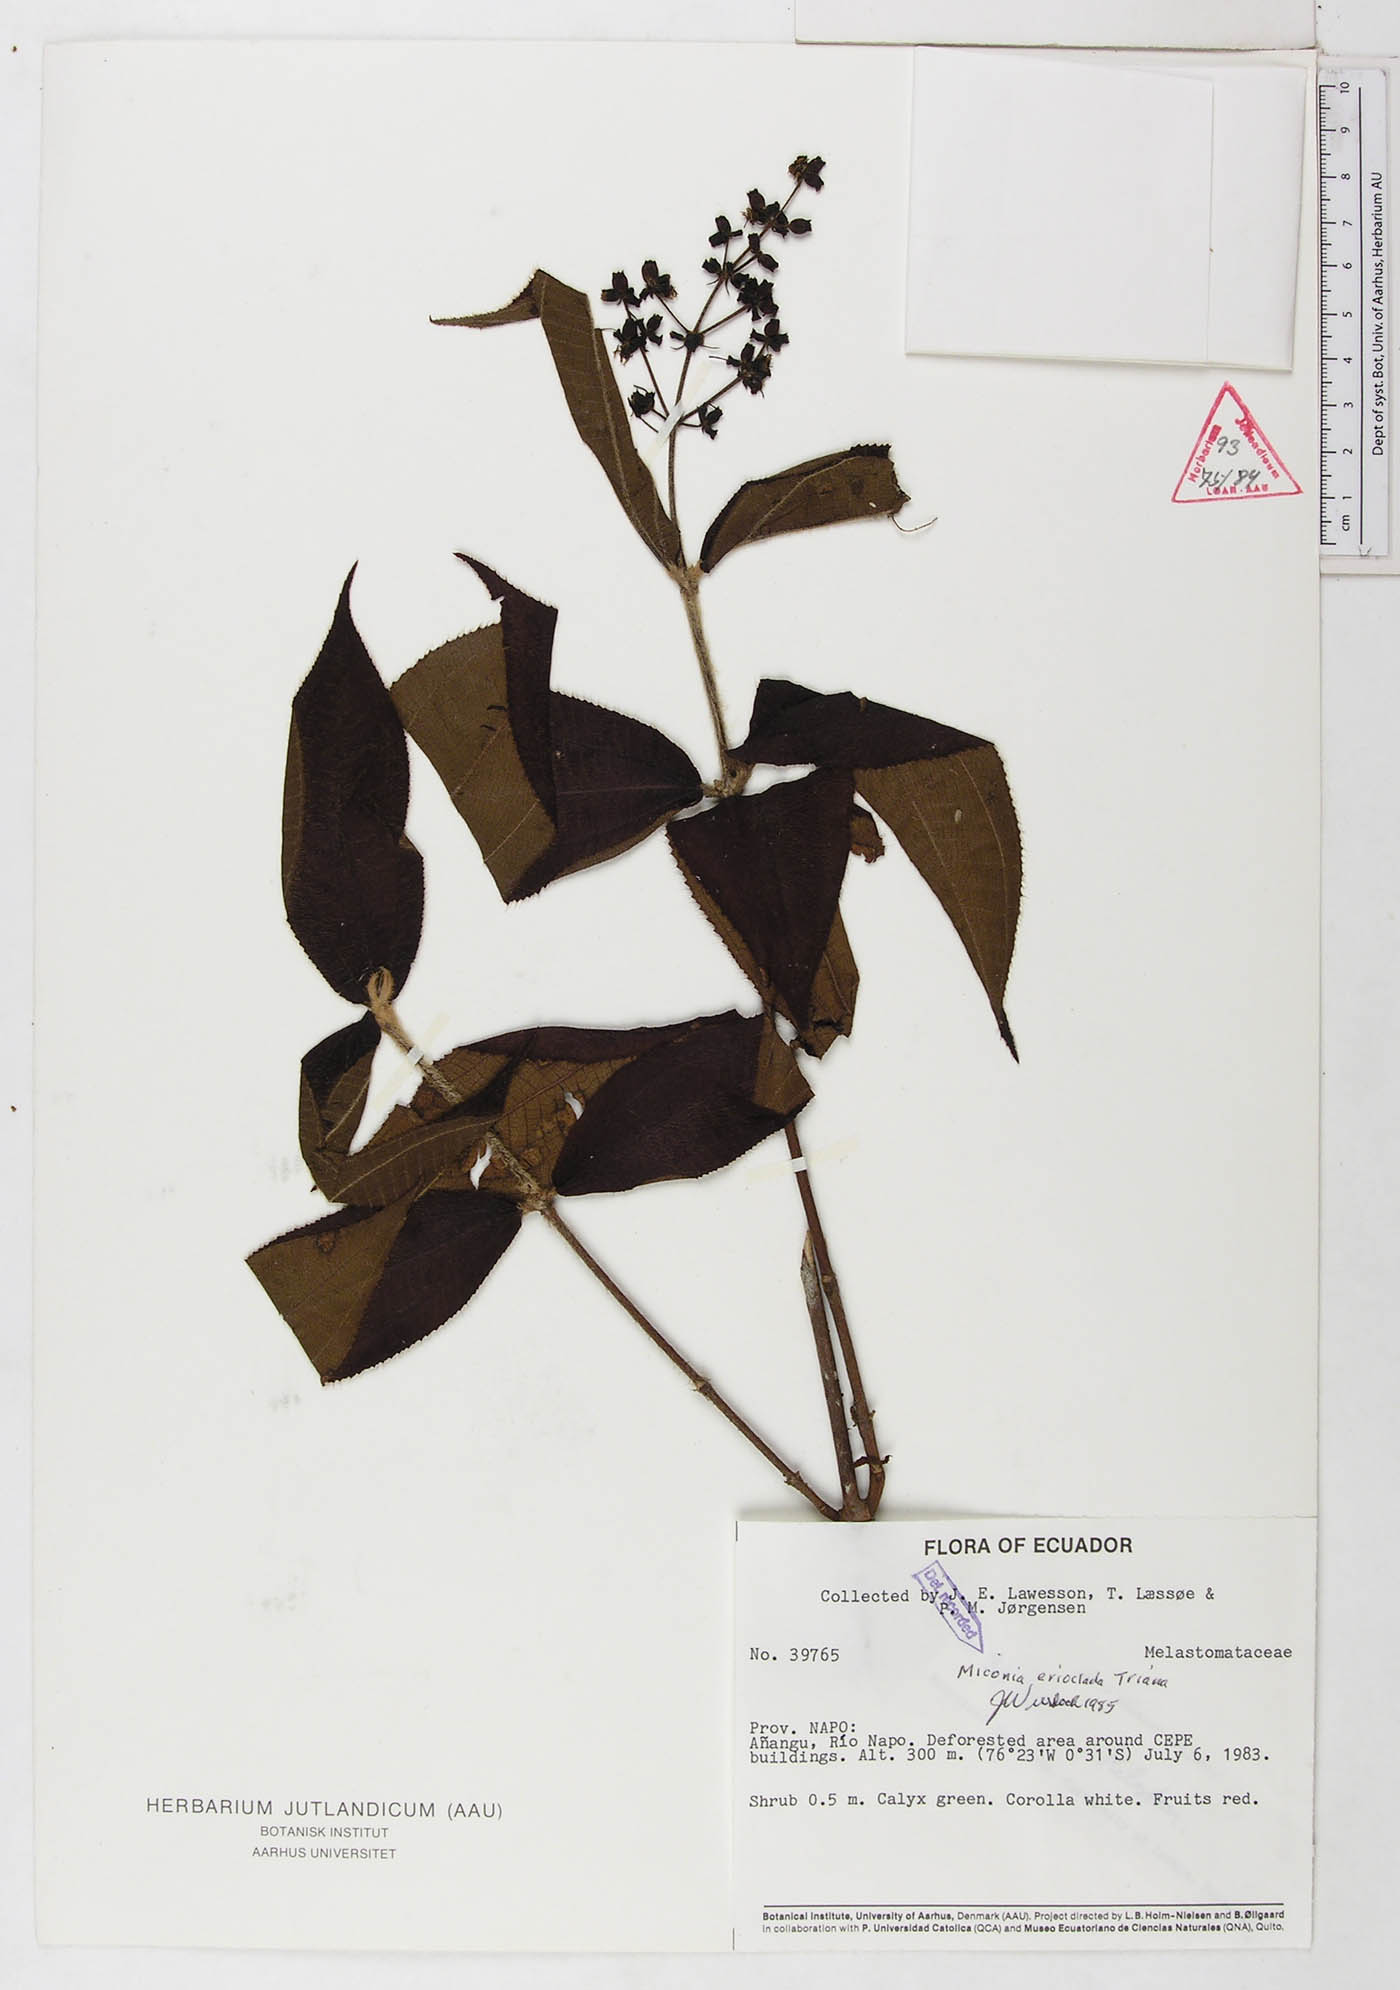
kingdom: Plantae
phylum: Tracheophyta
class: Magnoliopsida
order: Myrtales
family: Melastomataceae
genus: Miconia
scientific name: Miconia erioclada
